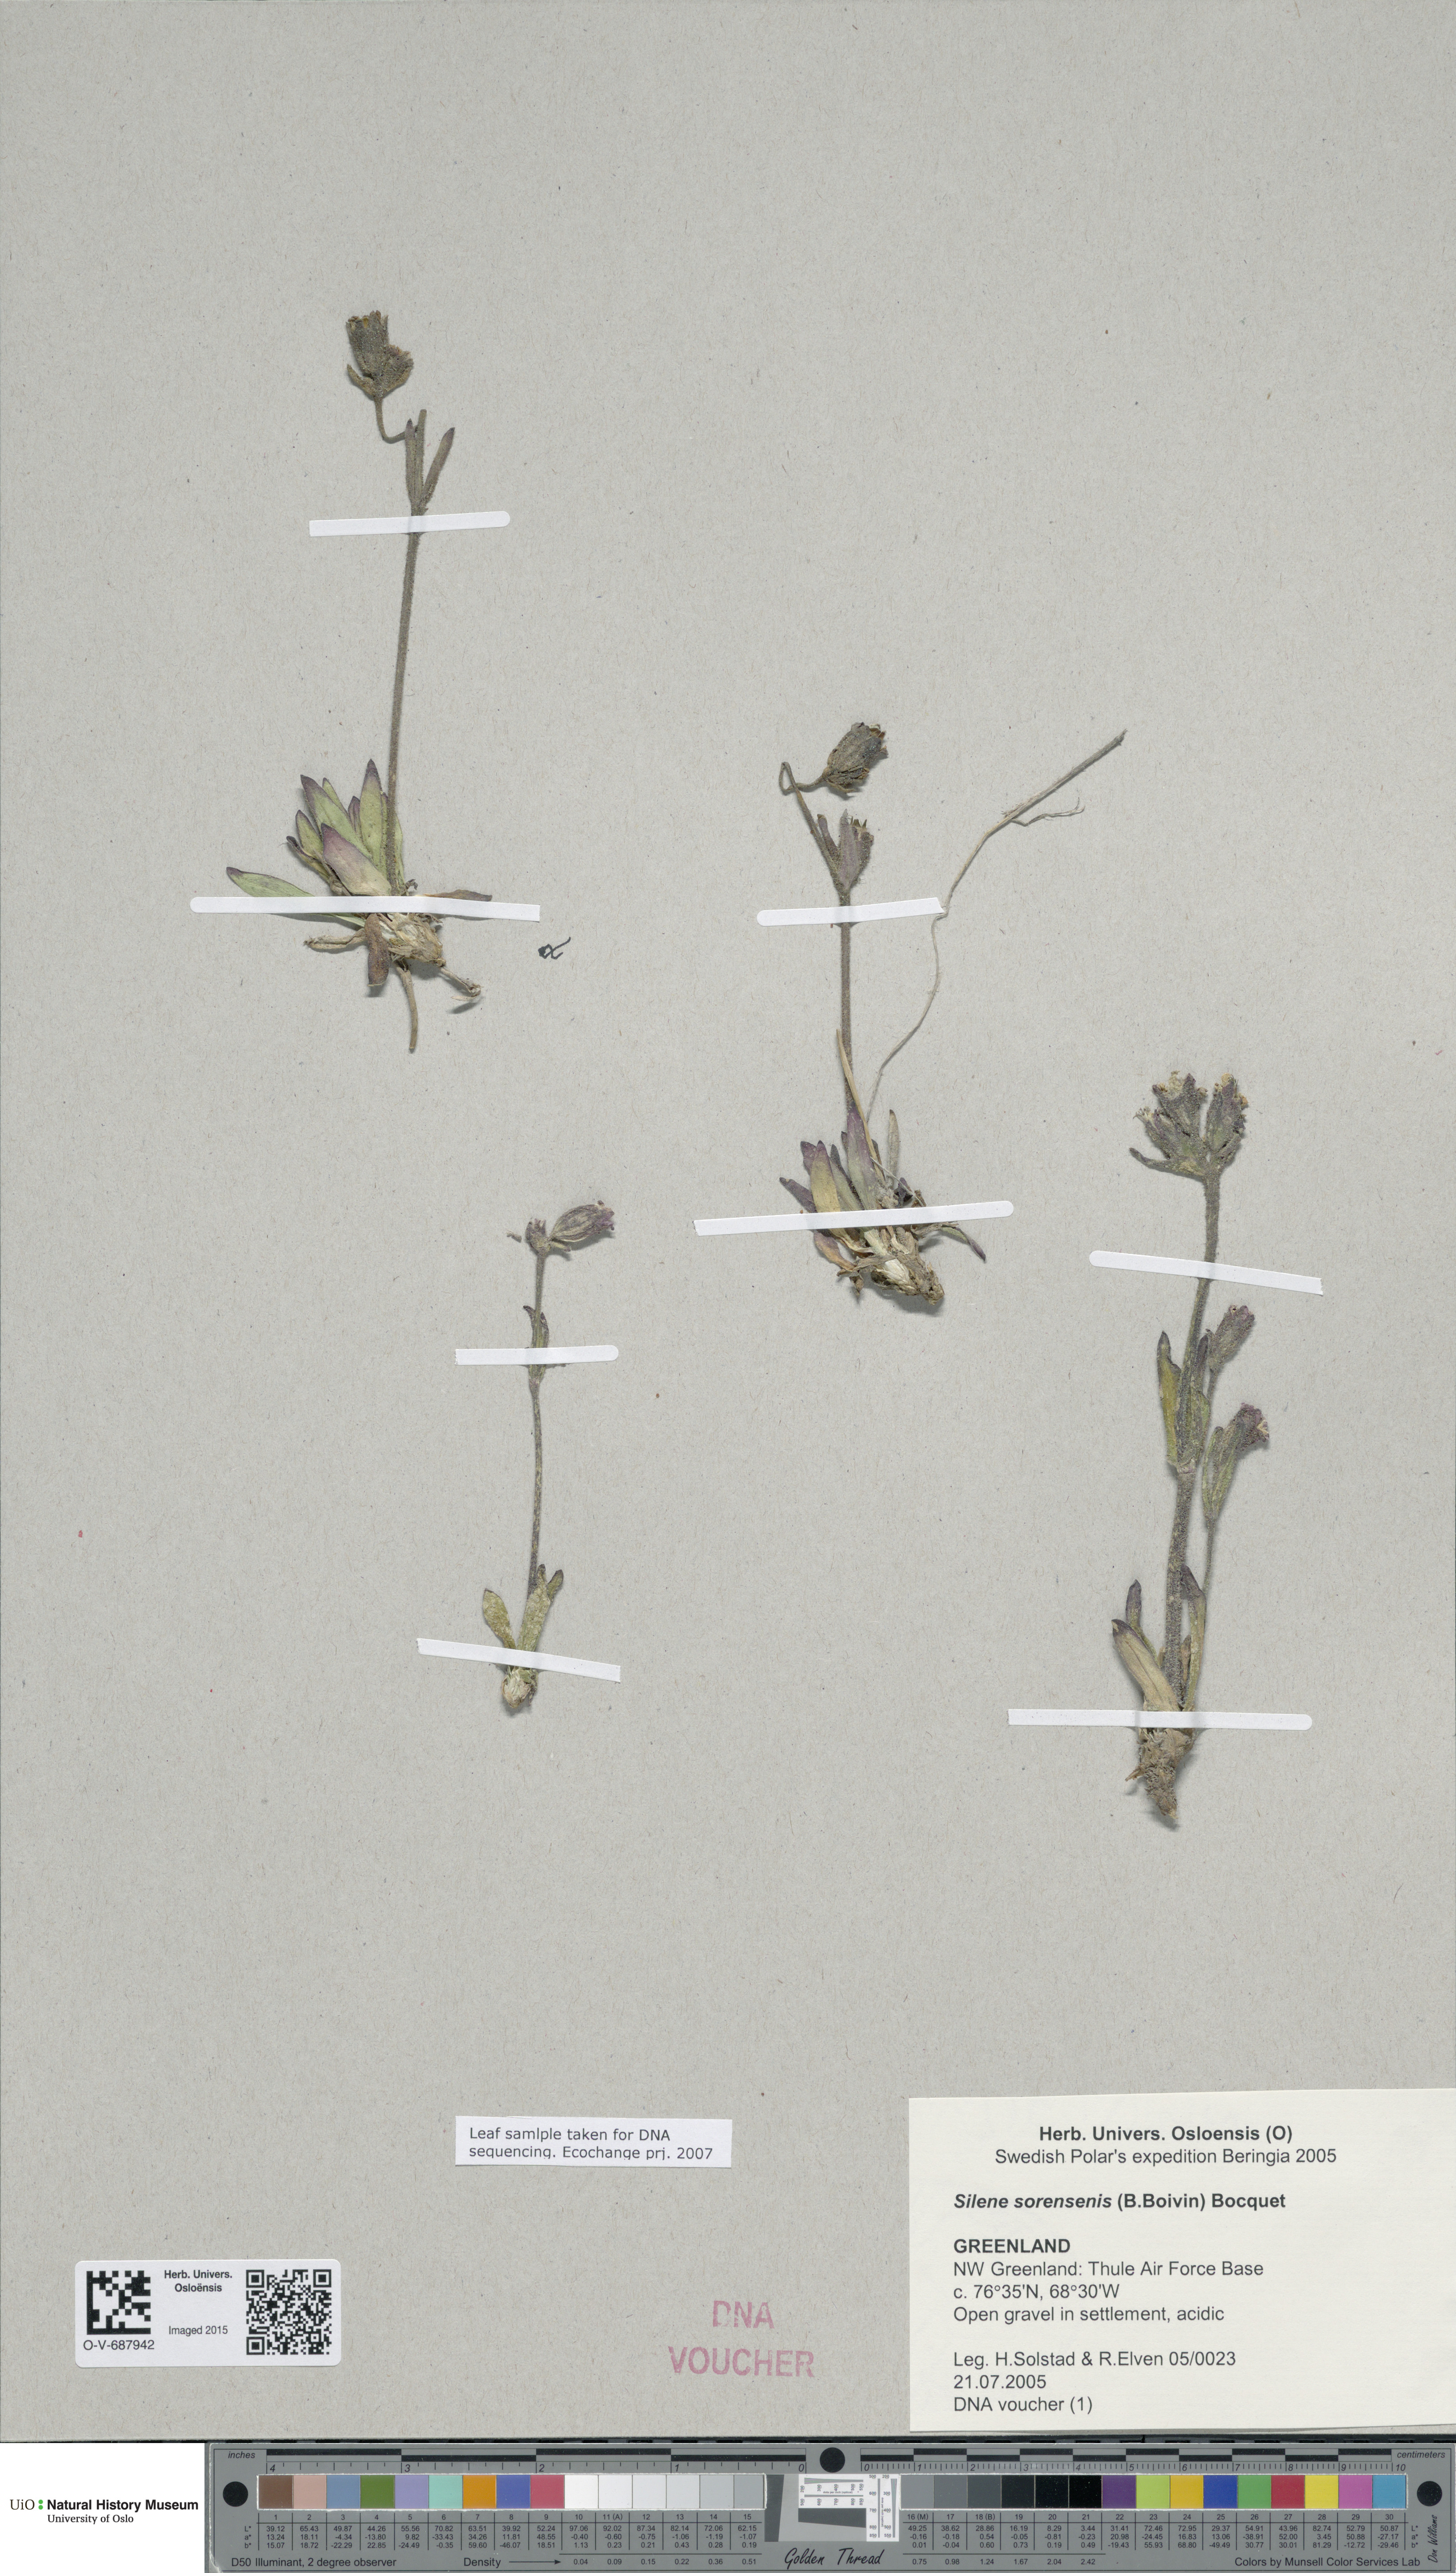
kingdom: Plantae
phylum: Tracheophyta
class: Magnoliopsida
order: Caryophyllales
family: Caryophyllaceae
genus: Silene
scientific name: Silene sorensenis
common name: Sorensen's campion
